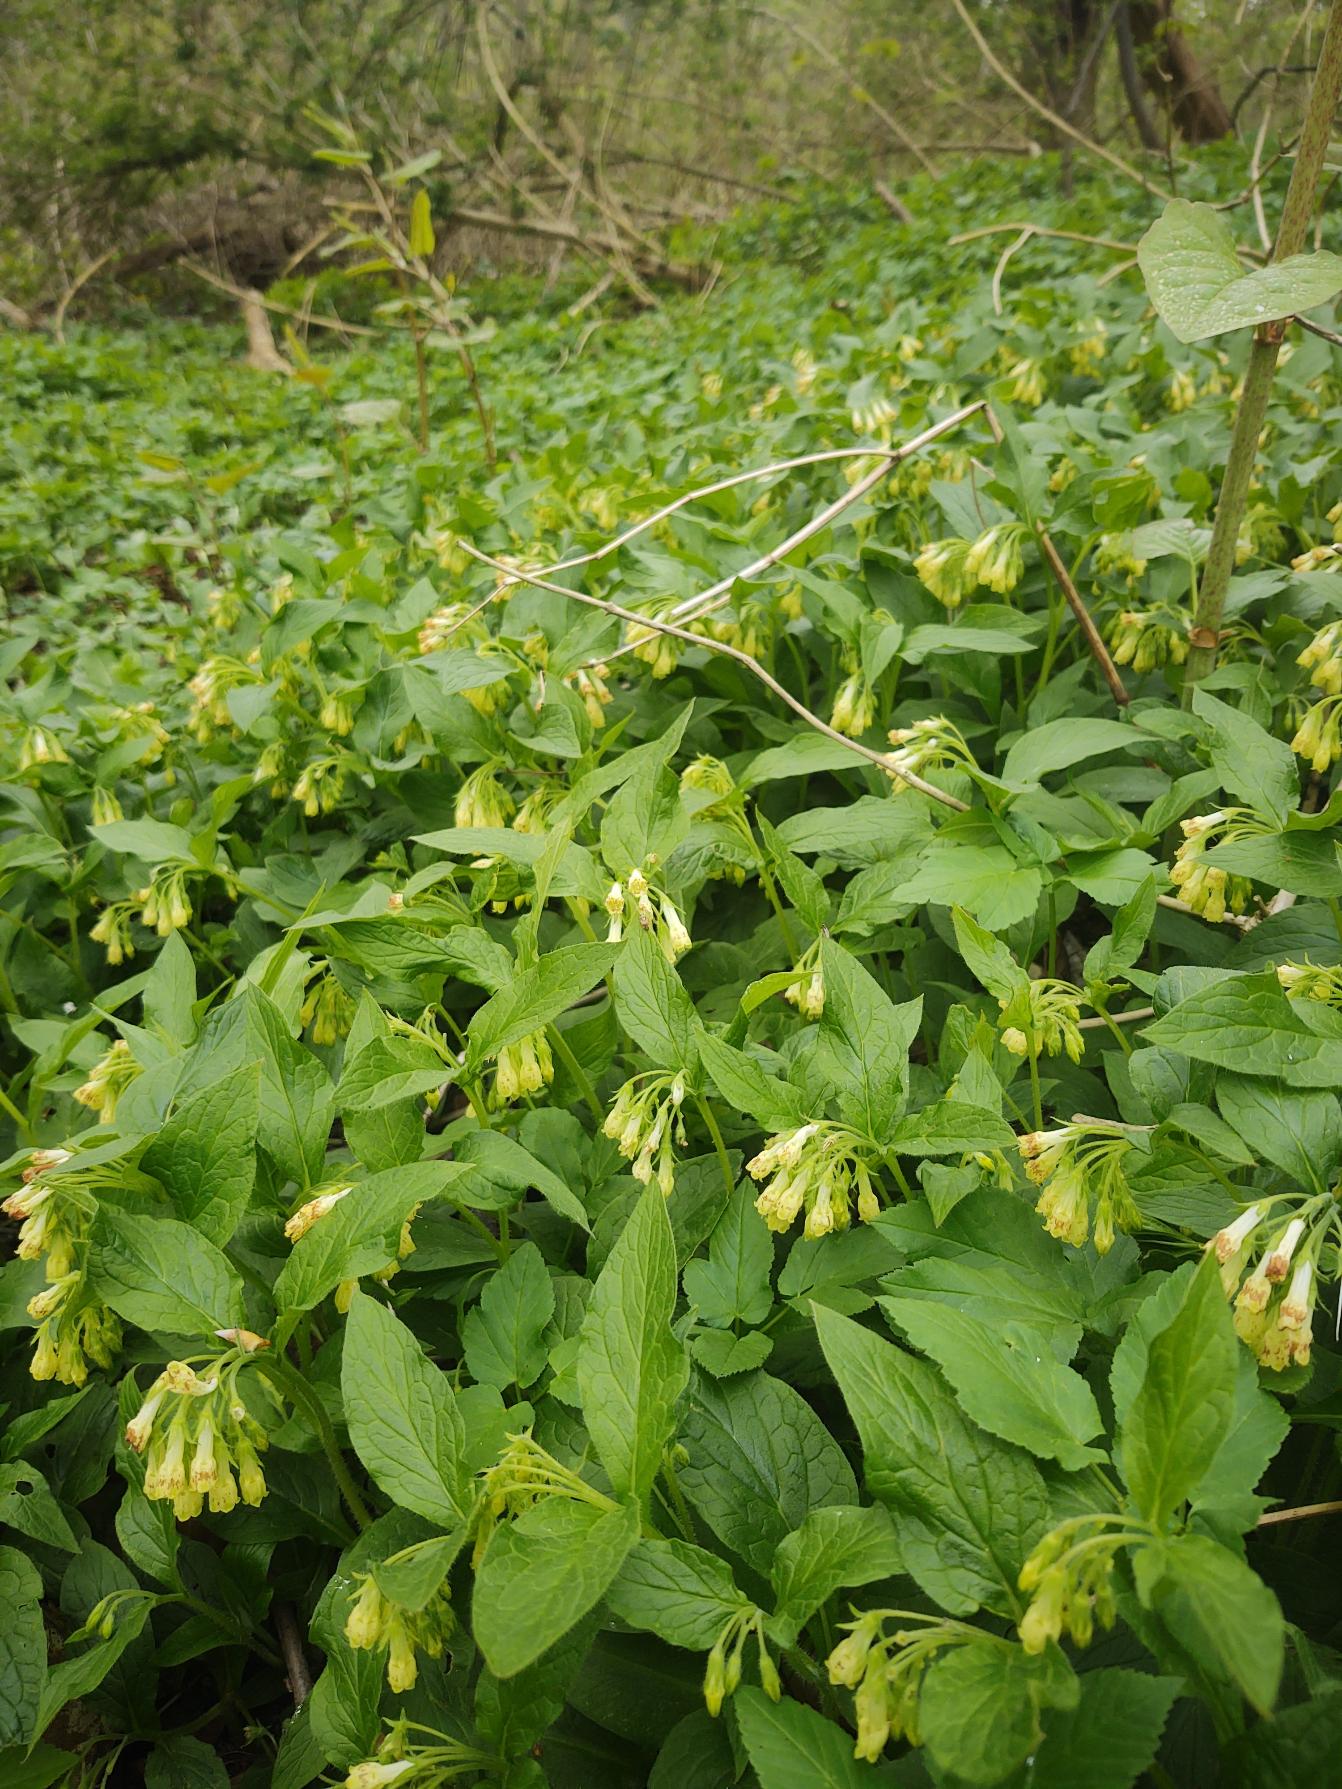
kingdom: Plantae
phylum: Tracheophyta
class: Magnoliopsida
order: Boraginales
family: Boraginaceae
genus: Symphytum
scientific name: Symphytum tuberosum
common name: Knoldet kulsukker
